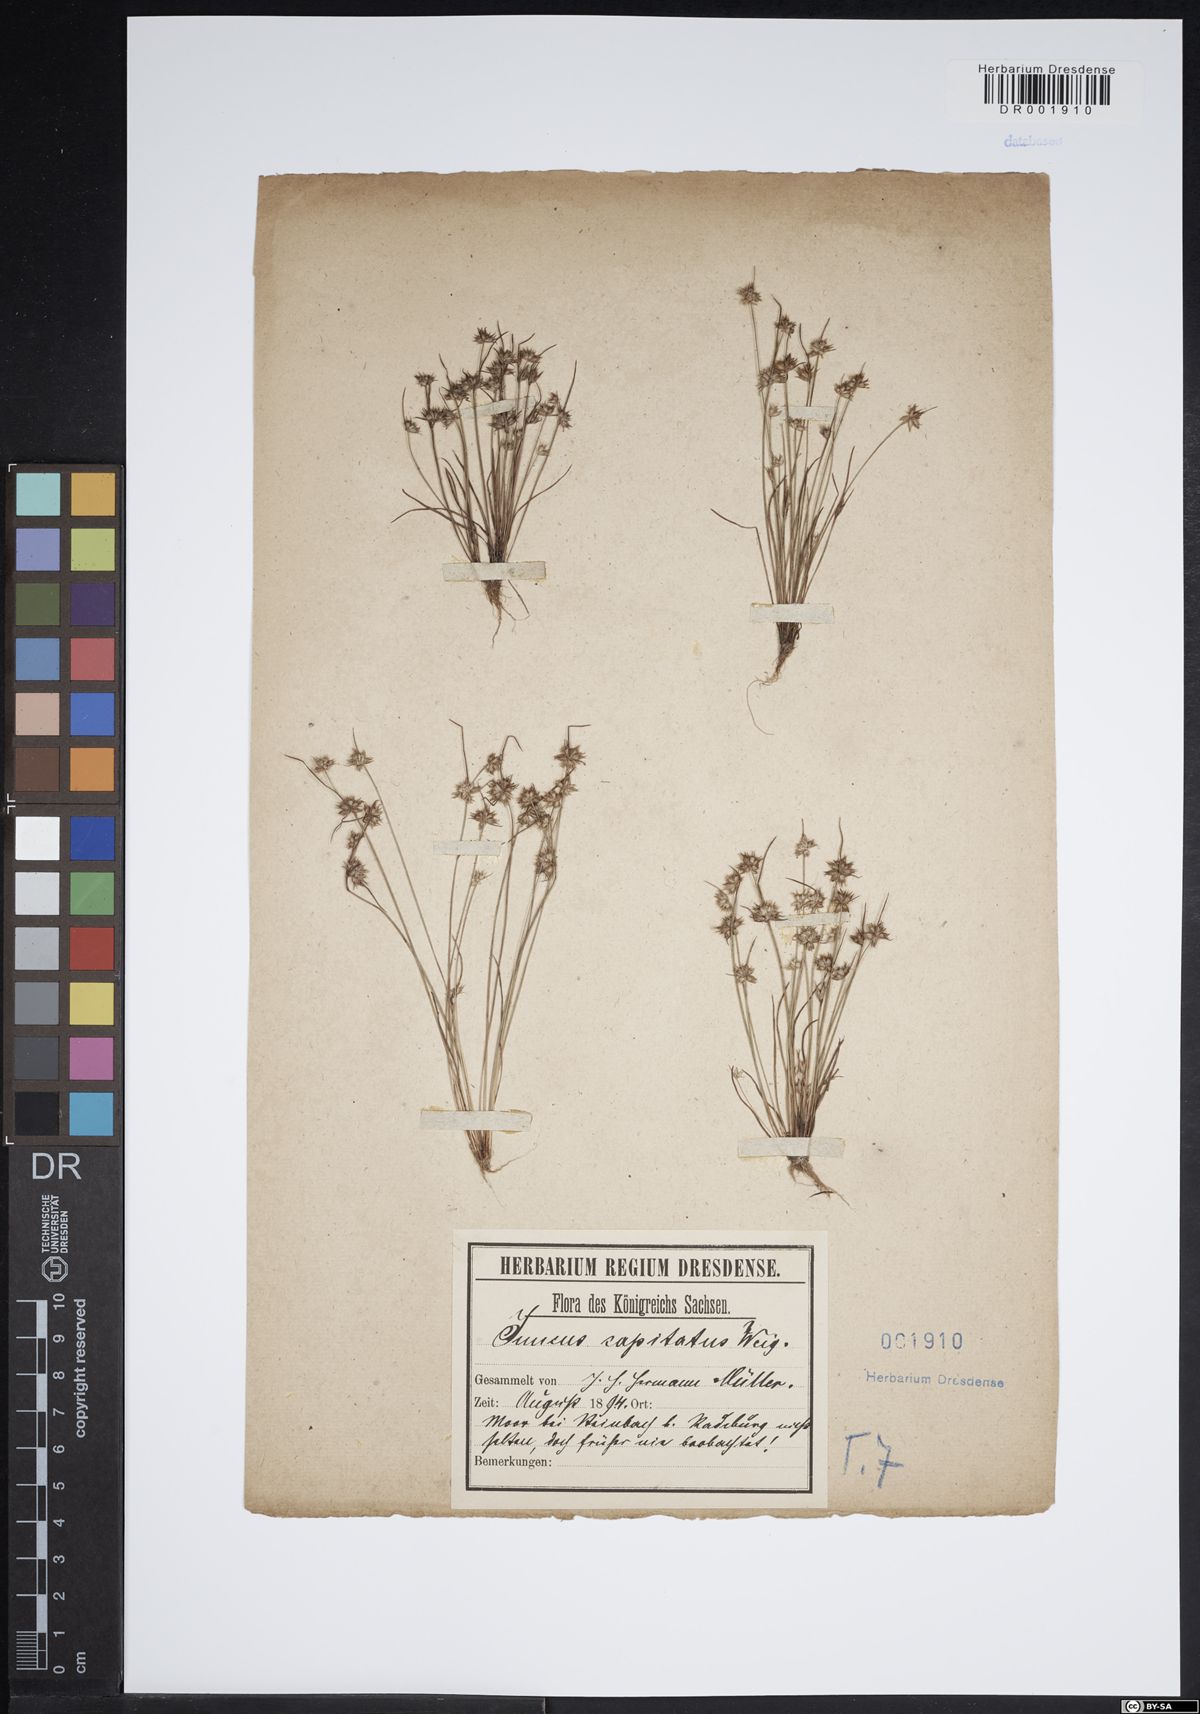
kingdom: Plantae
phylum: Tracheophyta
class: Liliopsida
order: Poales
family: Juncaceae
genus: Juncus
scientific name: Juncus capitatus
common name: Dwarf rush
